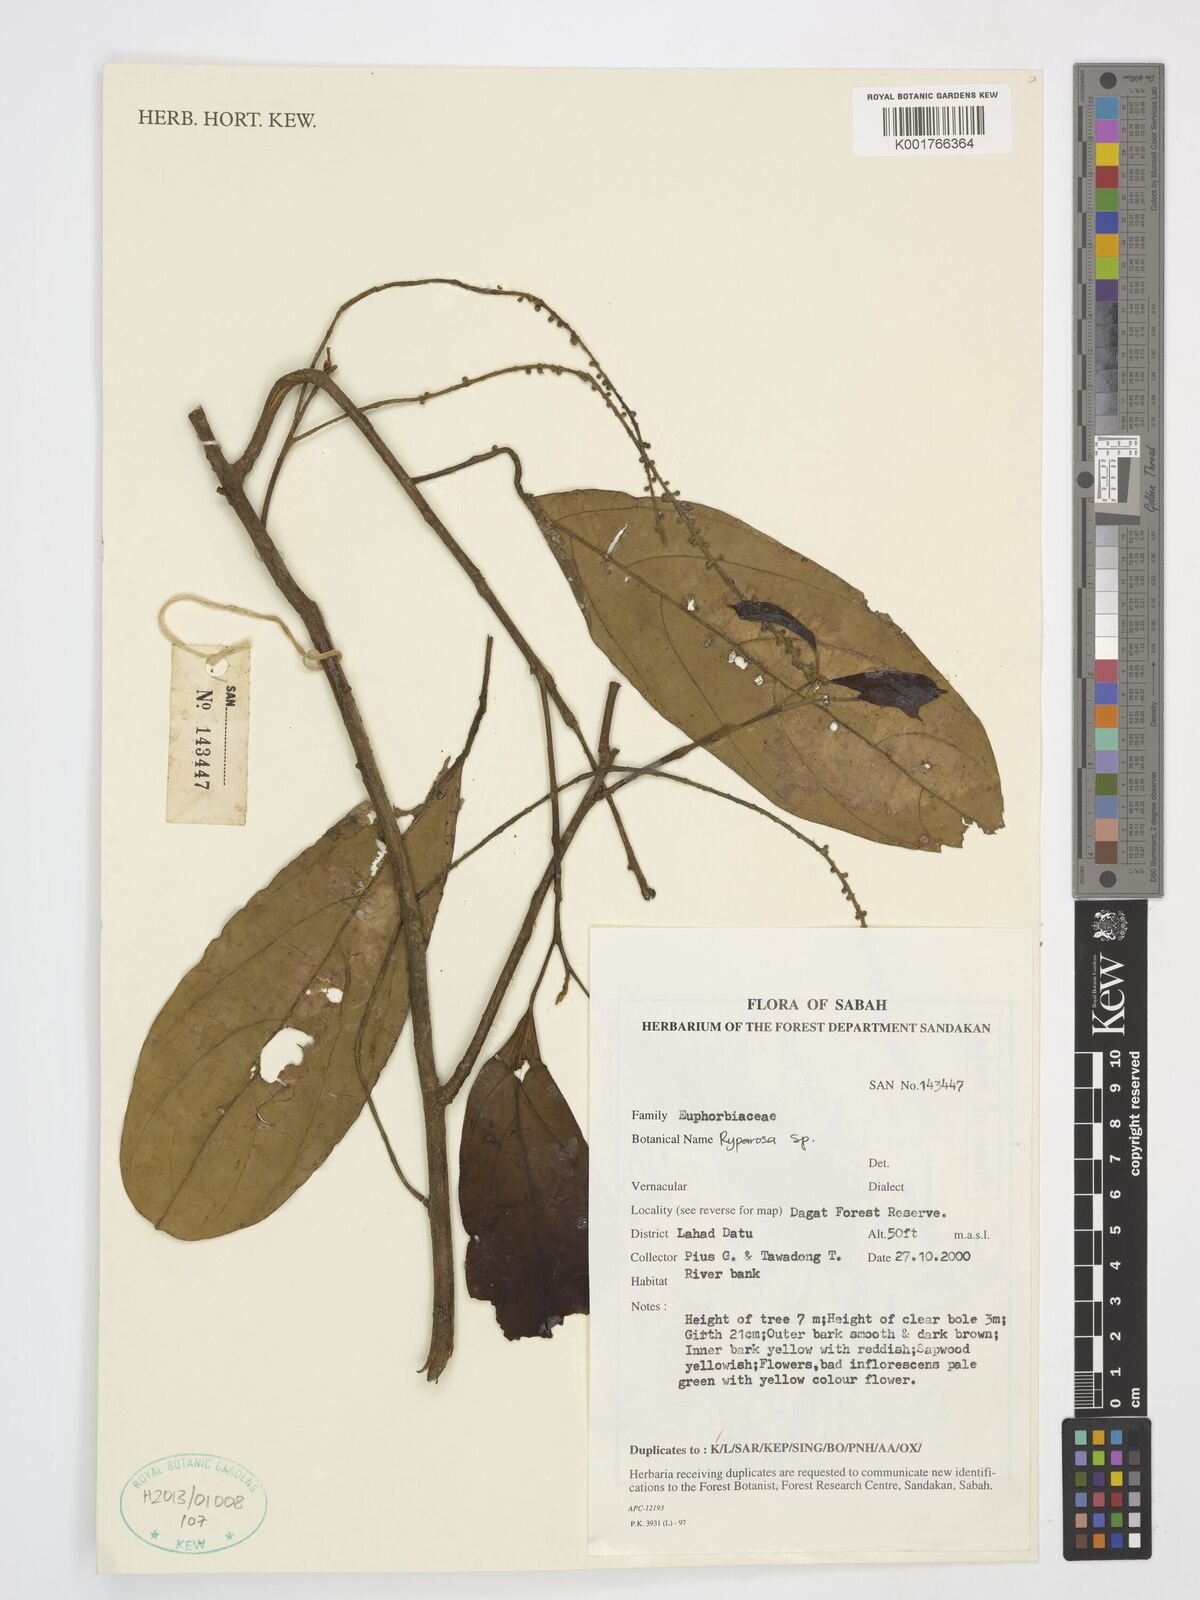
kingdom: Plantae
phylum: Tracheophyta
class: Magnoliopsida
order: Malpighiales
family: Achariaceae
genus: Ryparosa
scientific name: Ryparosa
